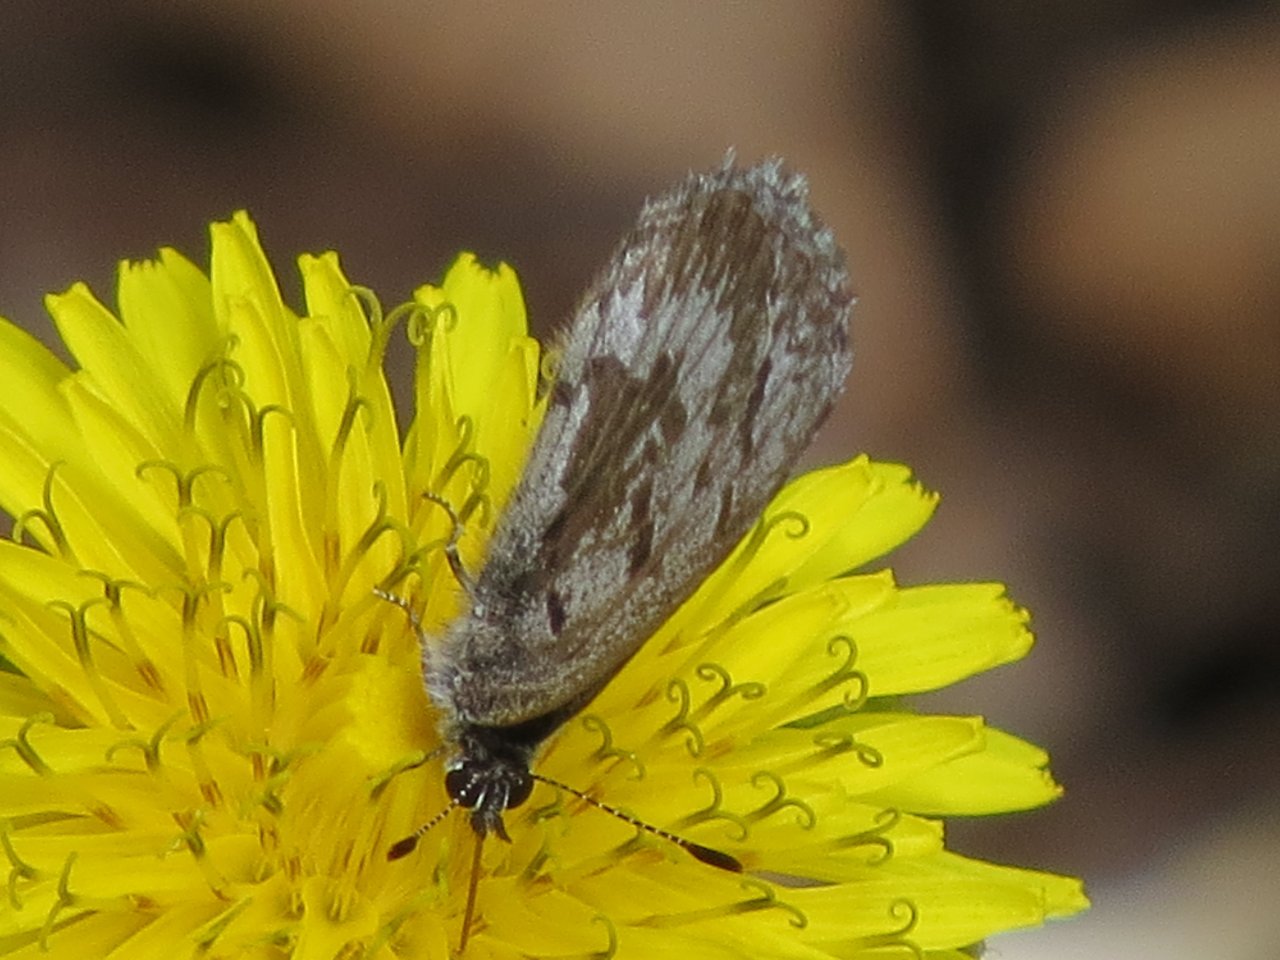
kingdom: Animalia
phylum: Arthropoda
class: Insecta
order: Lepidoptera
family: Lycaenidae
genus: Celastrina
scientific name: Celastrina lucia
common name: Northern Spring Azure
